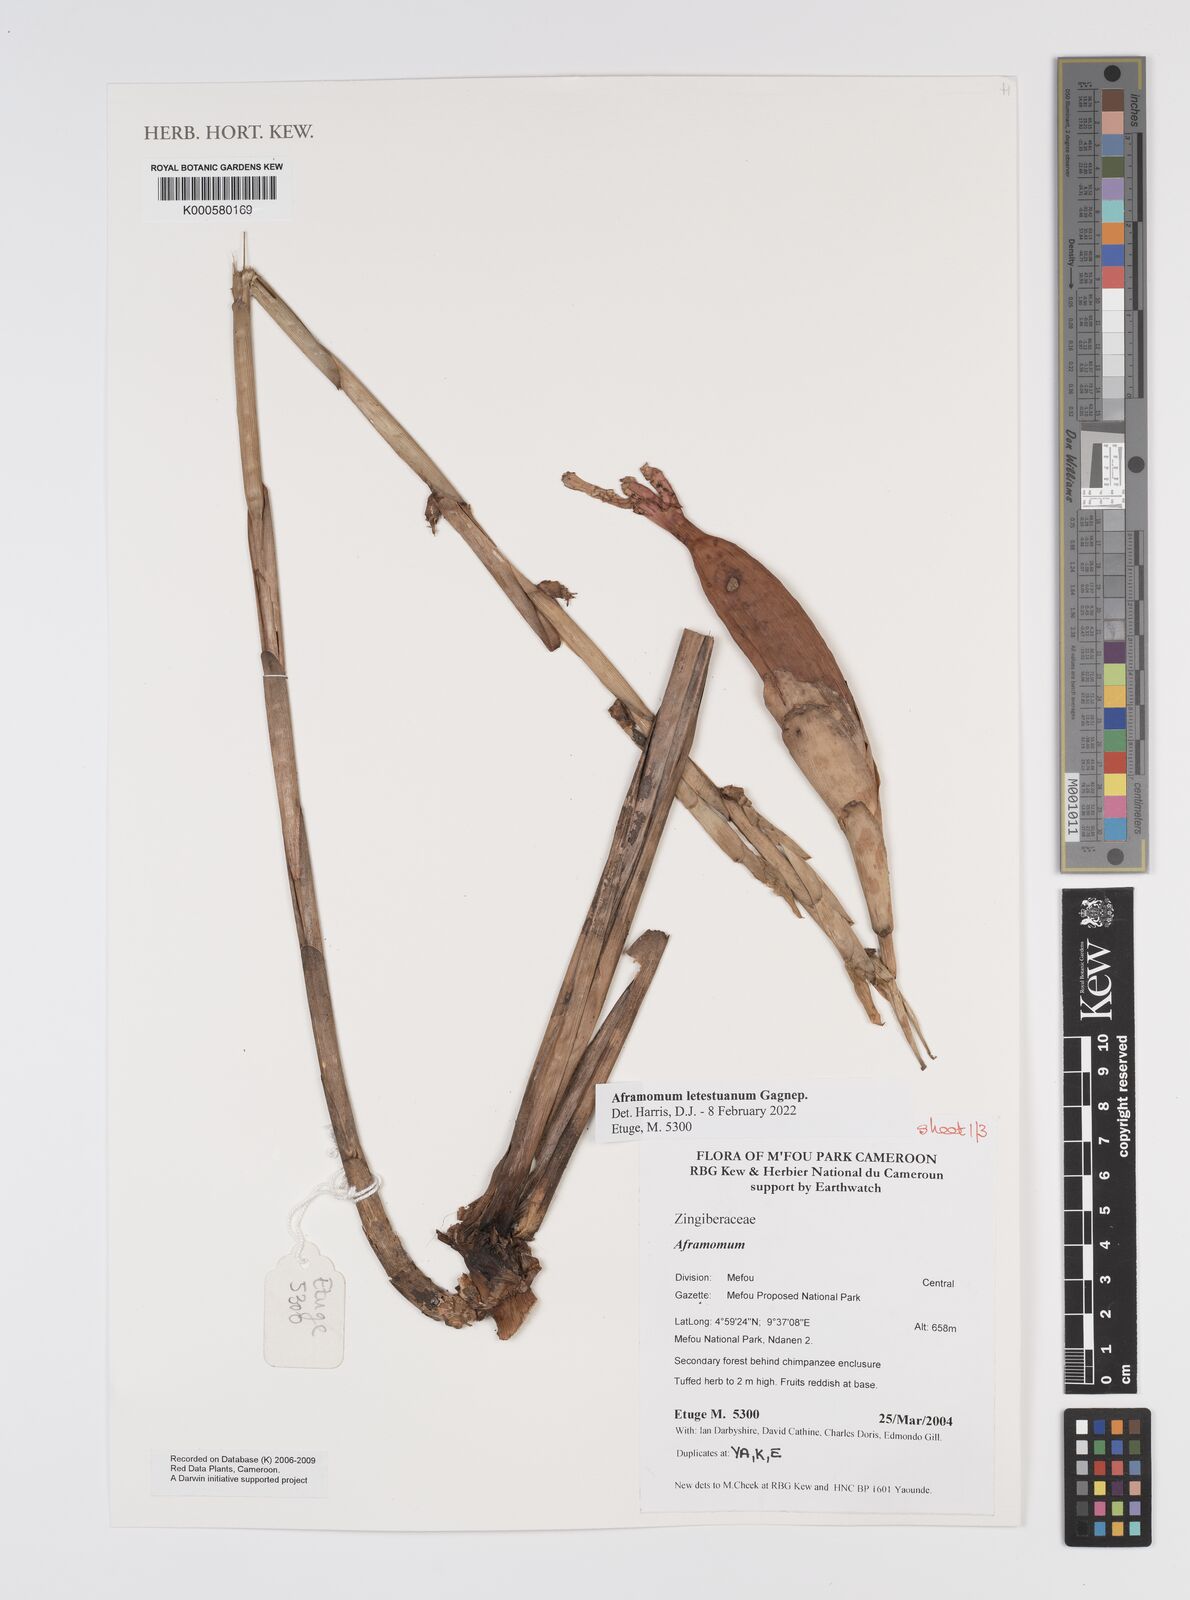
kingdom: Plantae
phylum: Tracheophyta
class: Liliopsida
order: Zingiberales
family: Zingiberaceae
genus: Aframomum
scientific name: Aframomum
